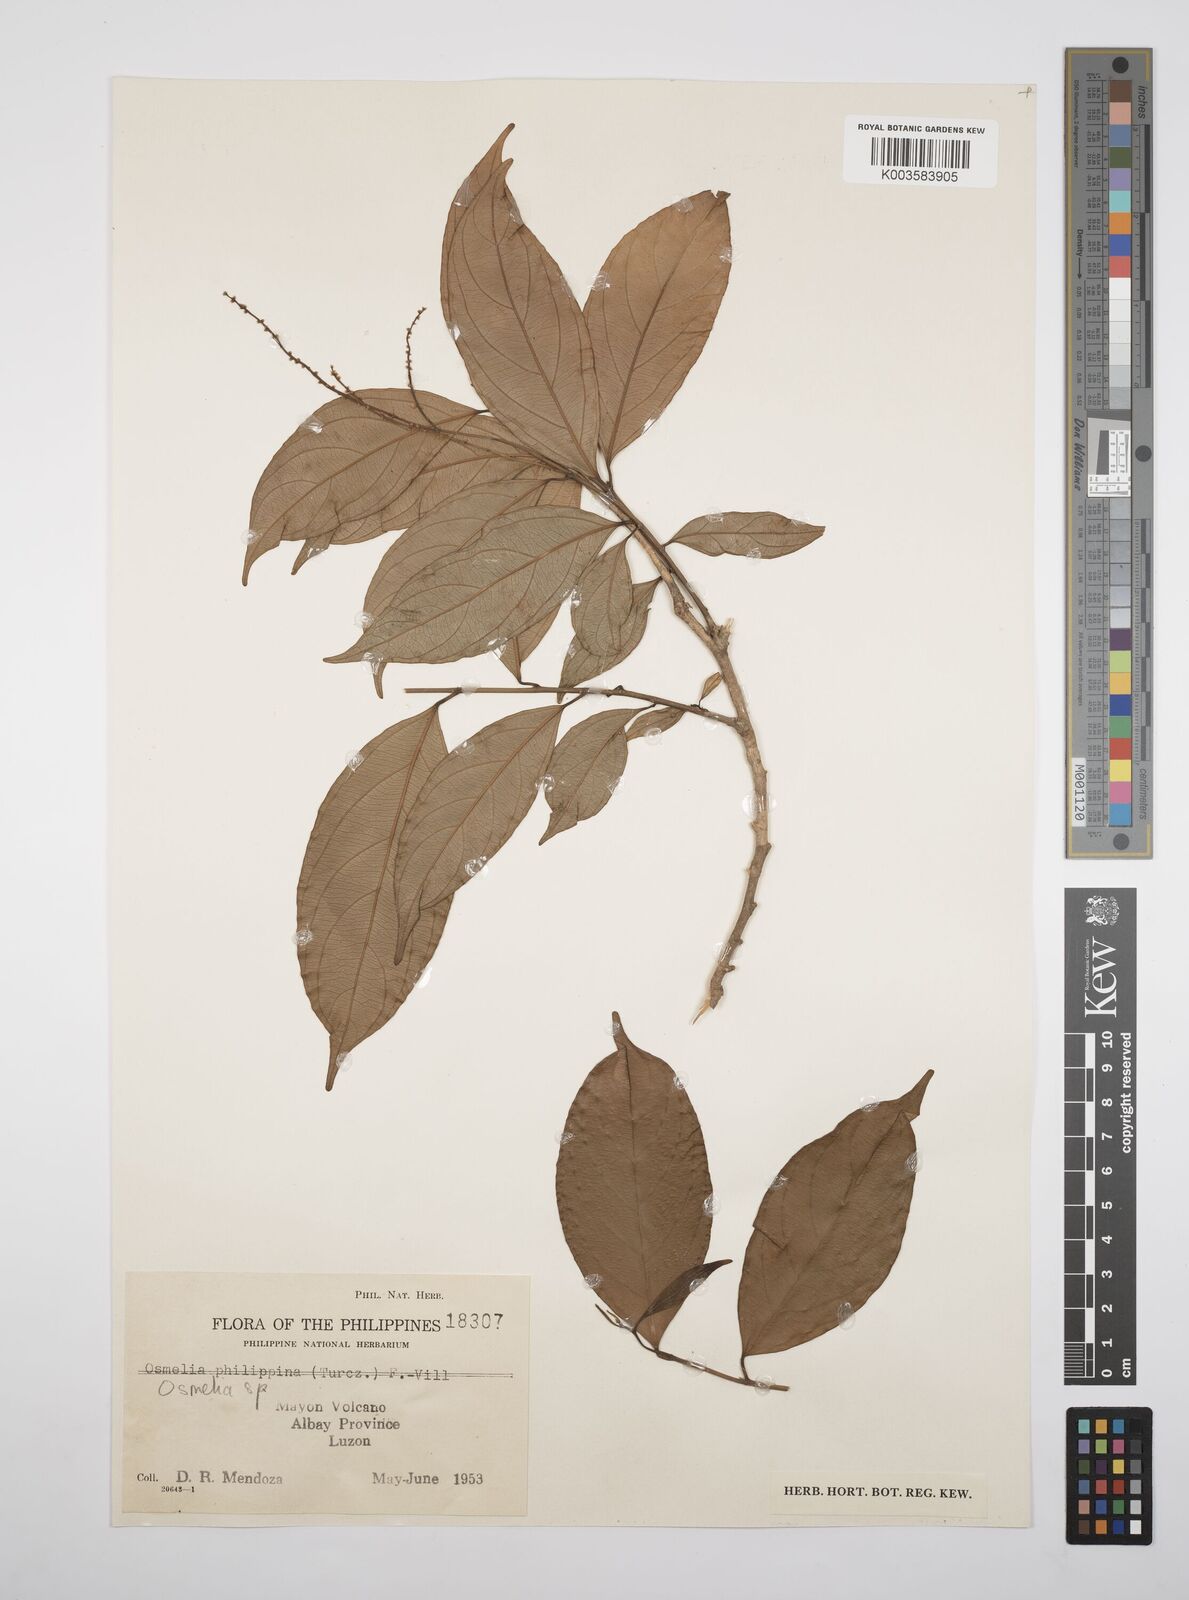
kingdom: Plantae
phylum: Tracheophyta
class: Magnoliopsida
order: Malpighiales
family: Salicaceae
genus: Osmelia
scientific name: Osmelia
